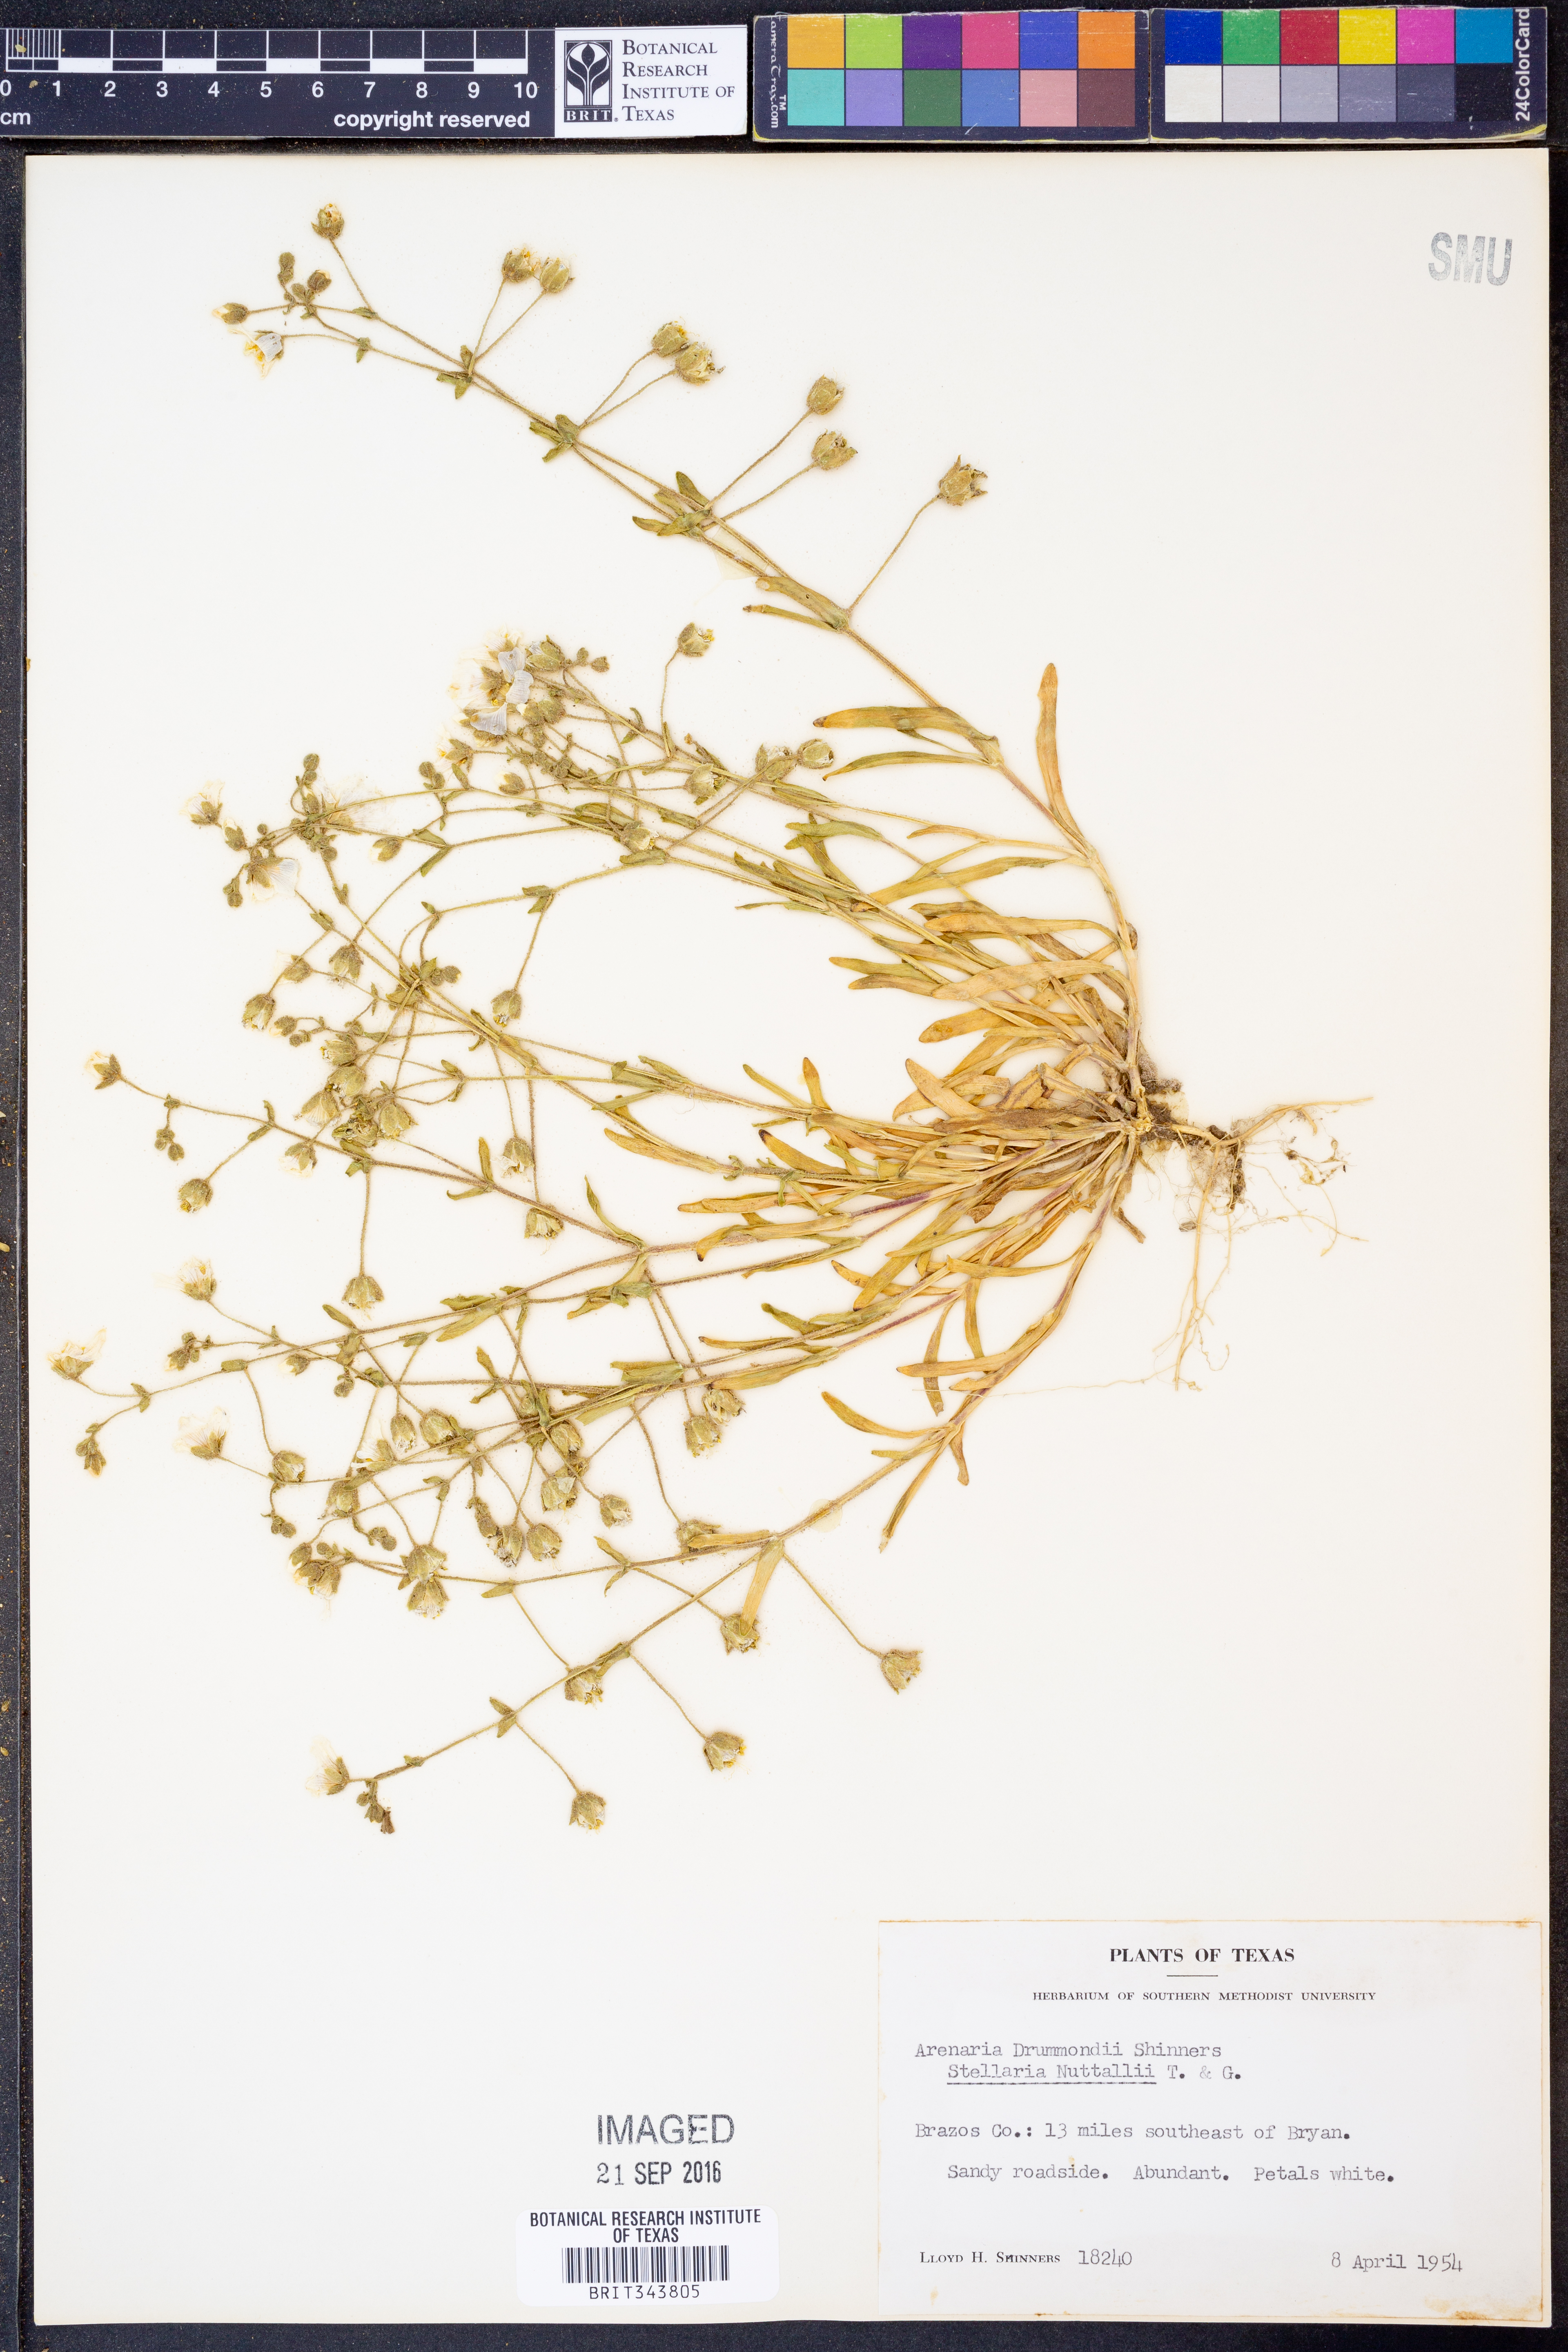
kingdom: Plantae
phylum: Tracheophyta
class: Magnoliopsida
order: Caryophyllales
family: Caryophyllaceae
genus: Geocarpon
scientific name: Geocarpon nuttallii
